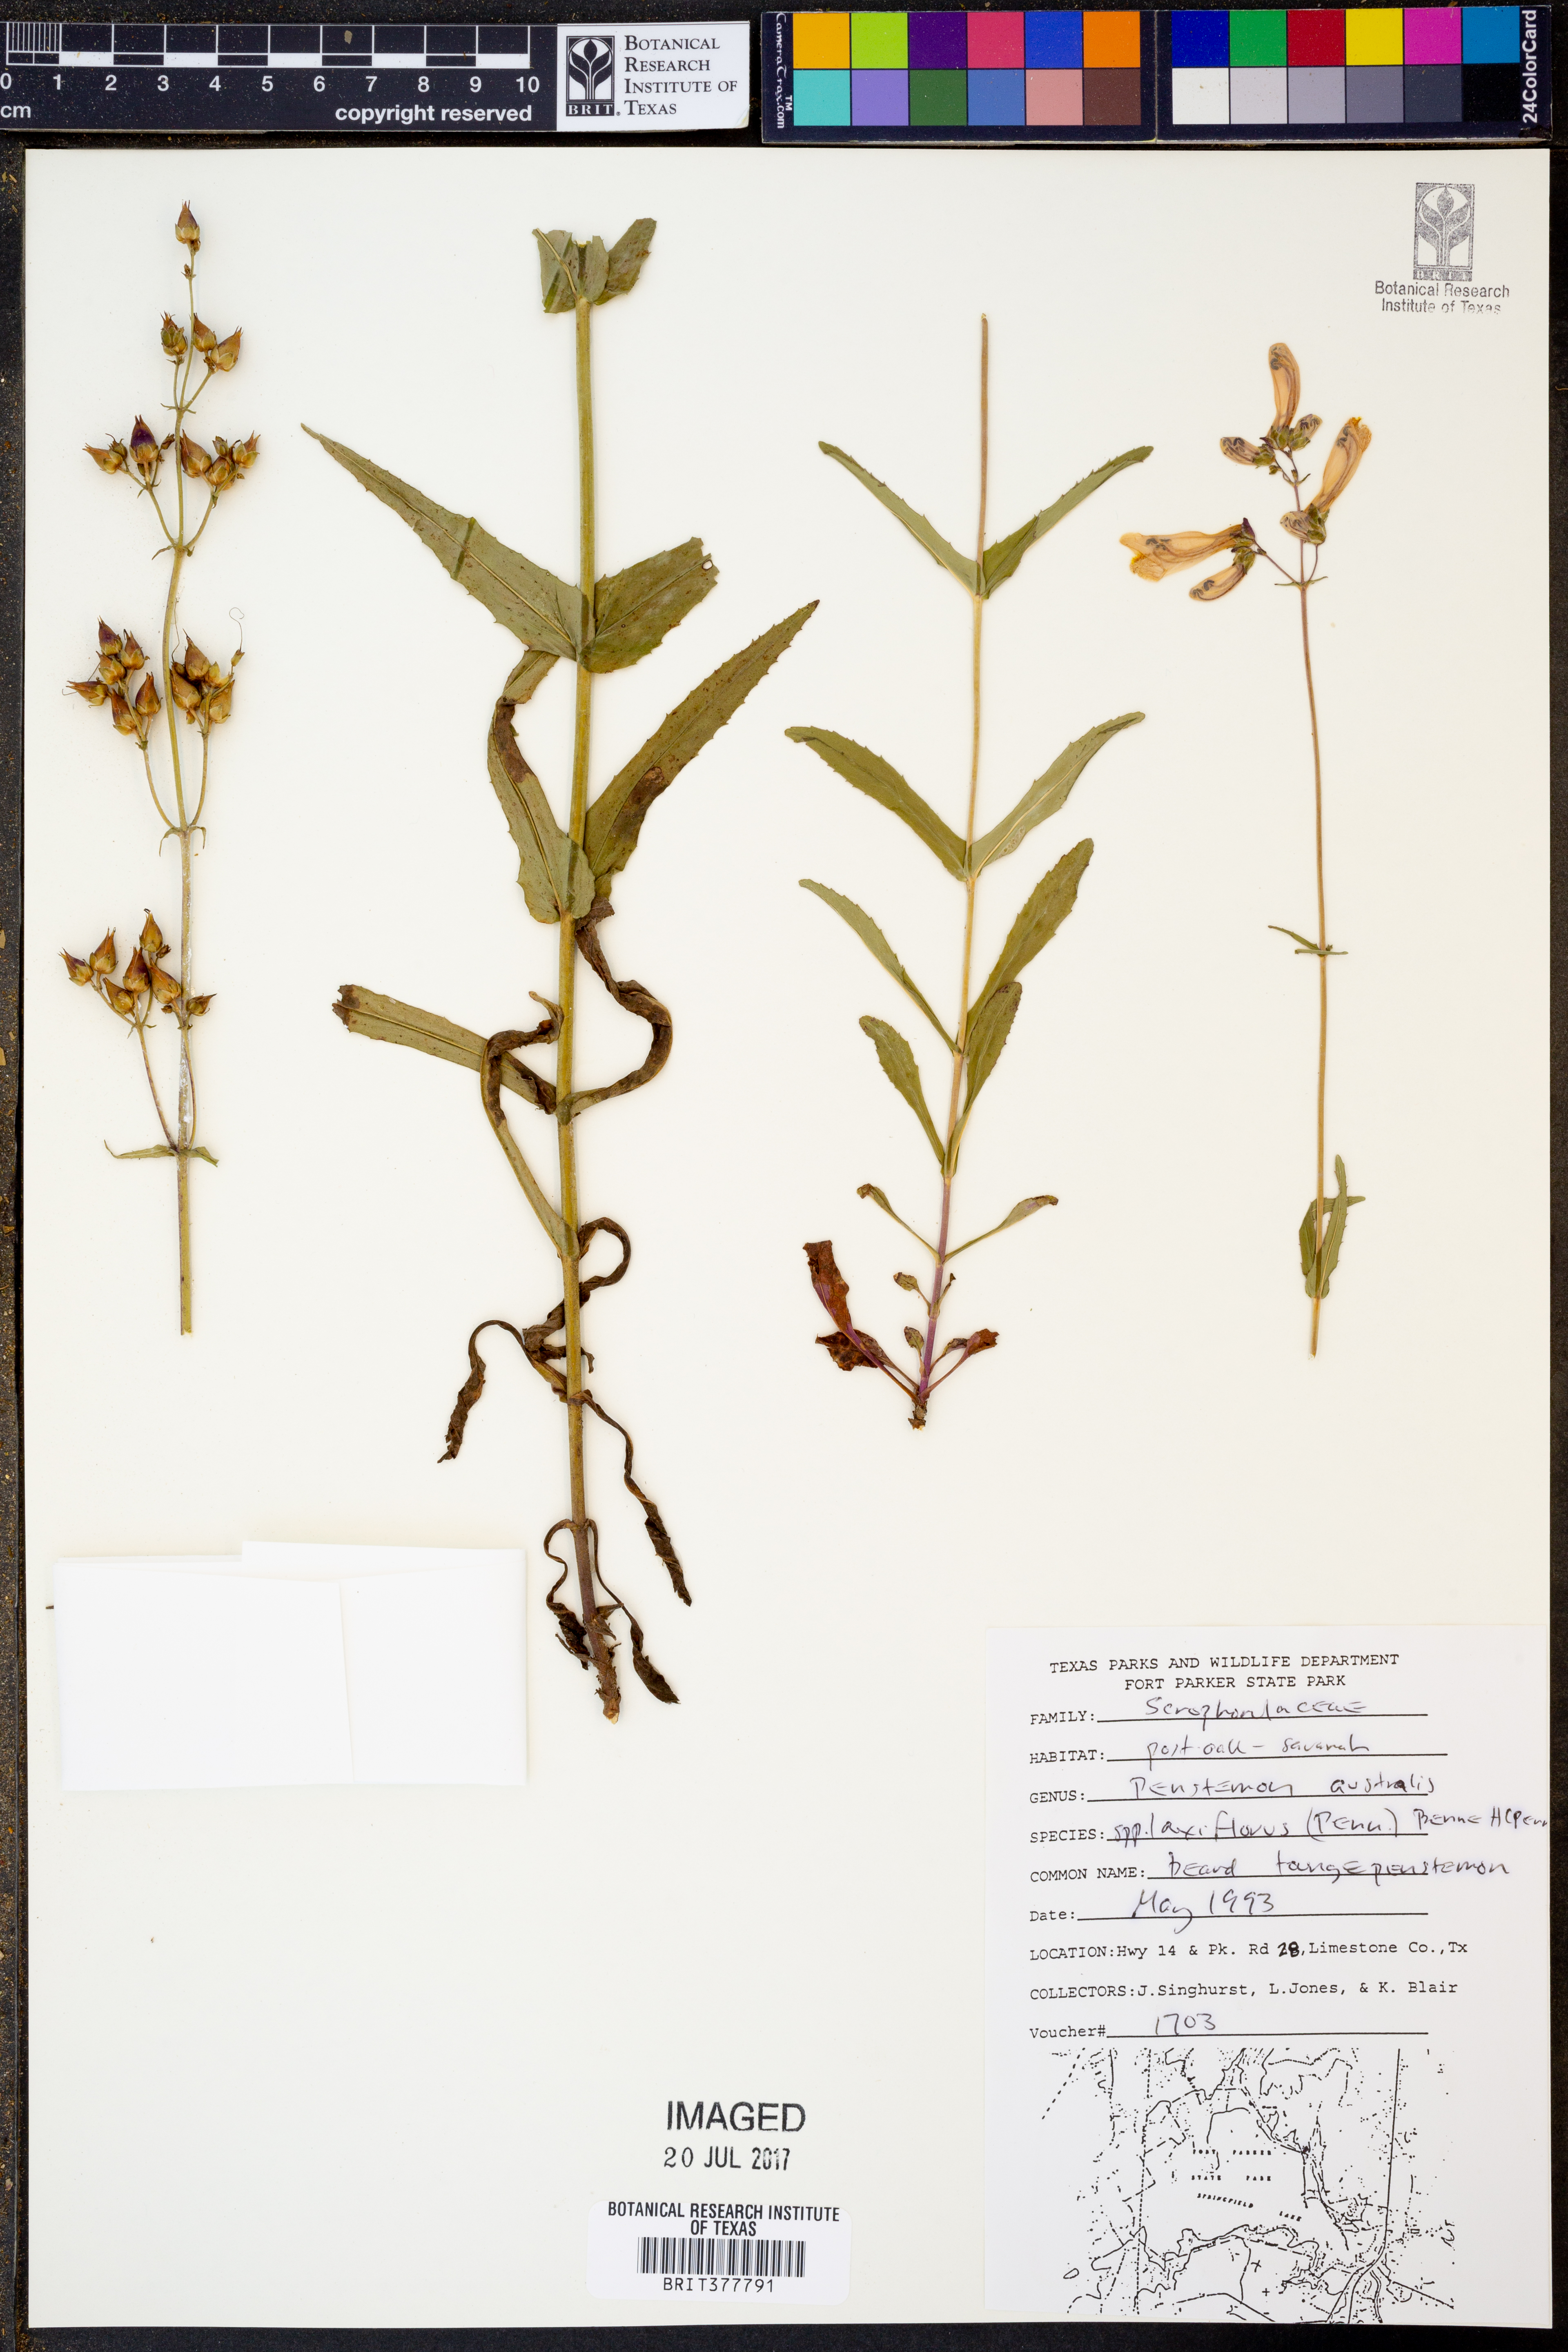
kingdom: Plantae
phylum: Tracheophyta
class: Magnoliopsida
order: Lamiales
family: Plantaginaceae
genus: Penstemon
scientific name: Penstemon australis
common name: Southeastern beardtongue
